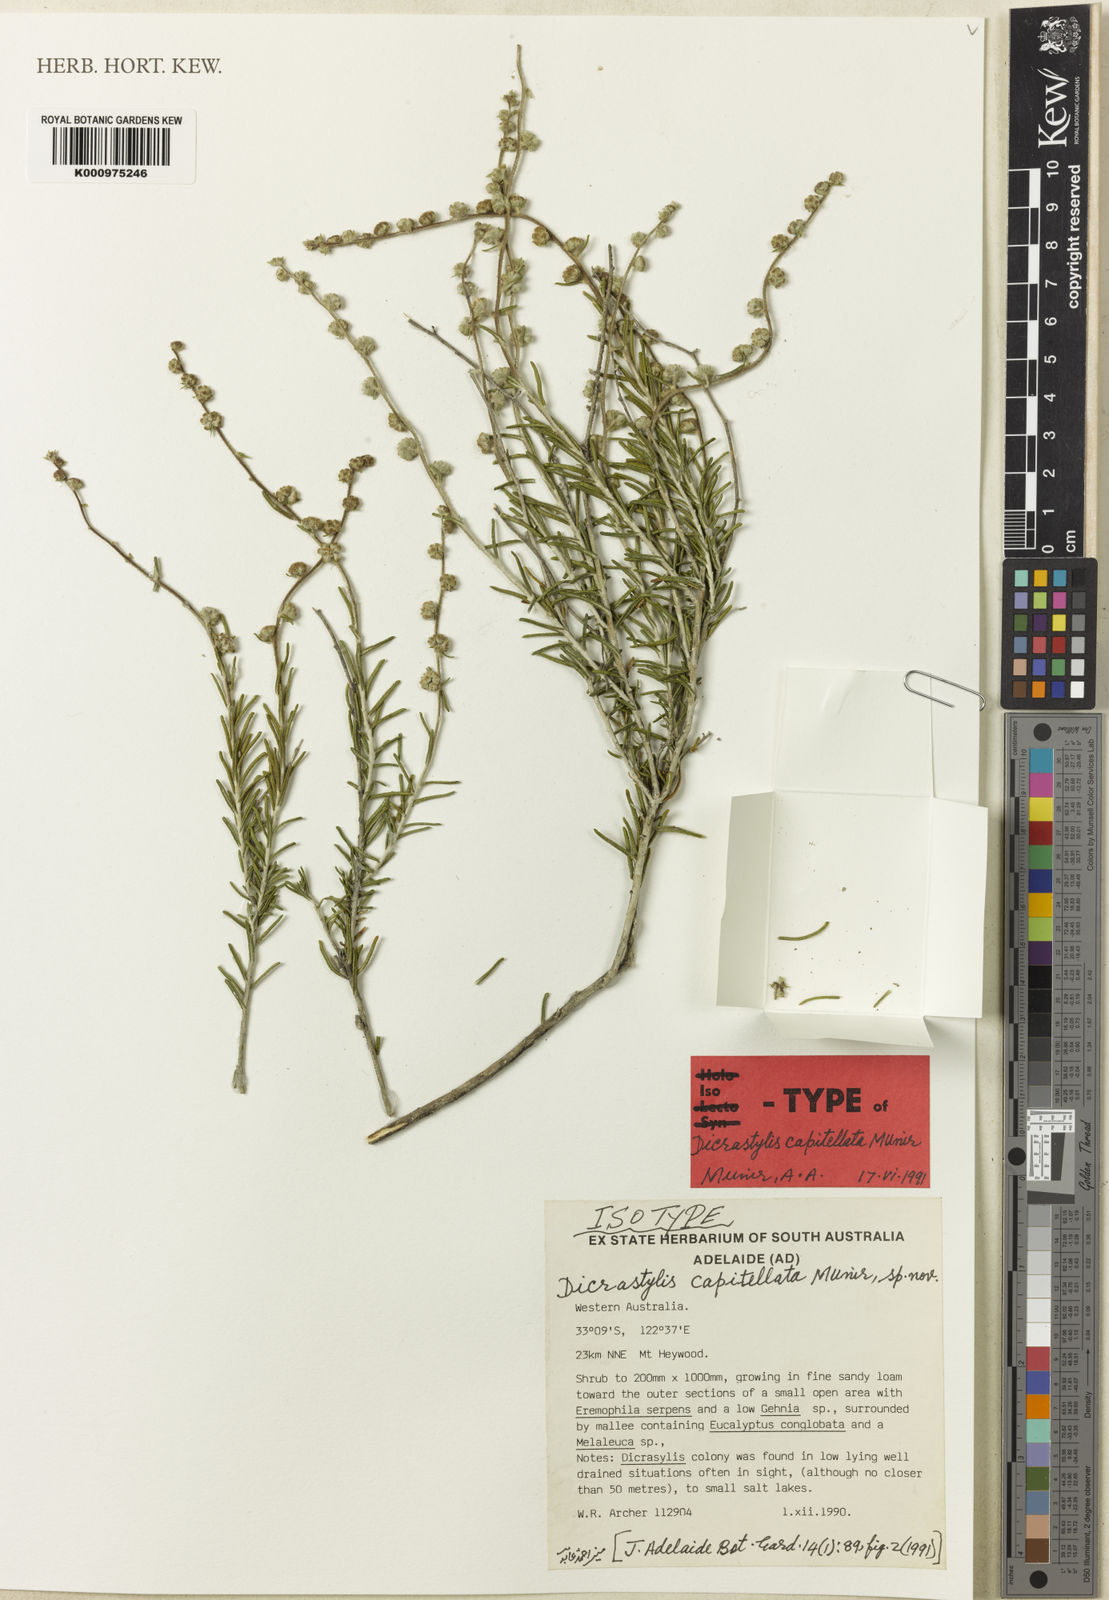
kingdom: Plantae
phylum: Tracheophyta
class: Magnoliopsida
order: Lamiales
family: Lamiaceae
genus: Dicrastylis
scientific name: Dicrastylis capitellata
